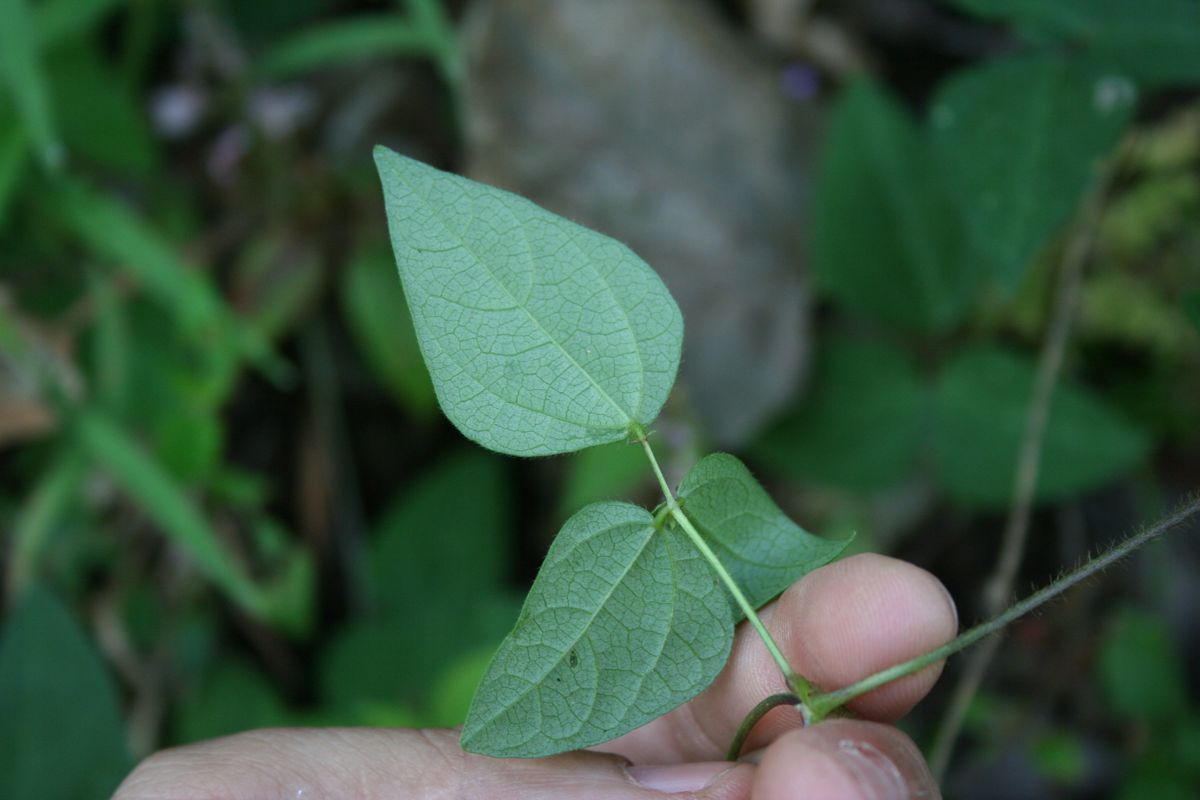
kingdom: Plantae
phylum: Tracheophyta
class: Magnoliopsida
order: Fabales
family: Fabaceae
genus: Phaseolus
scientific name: Phaseolus leptostachyus
